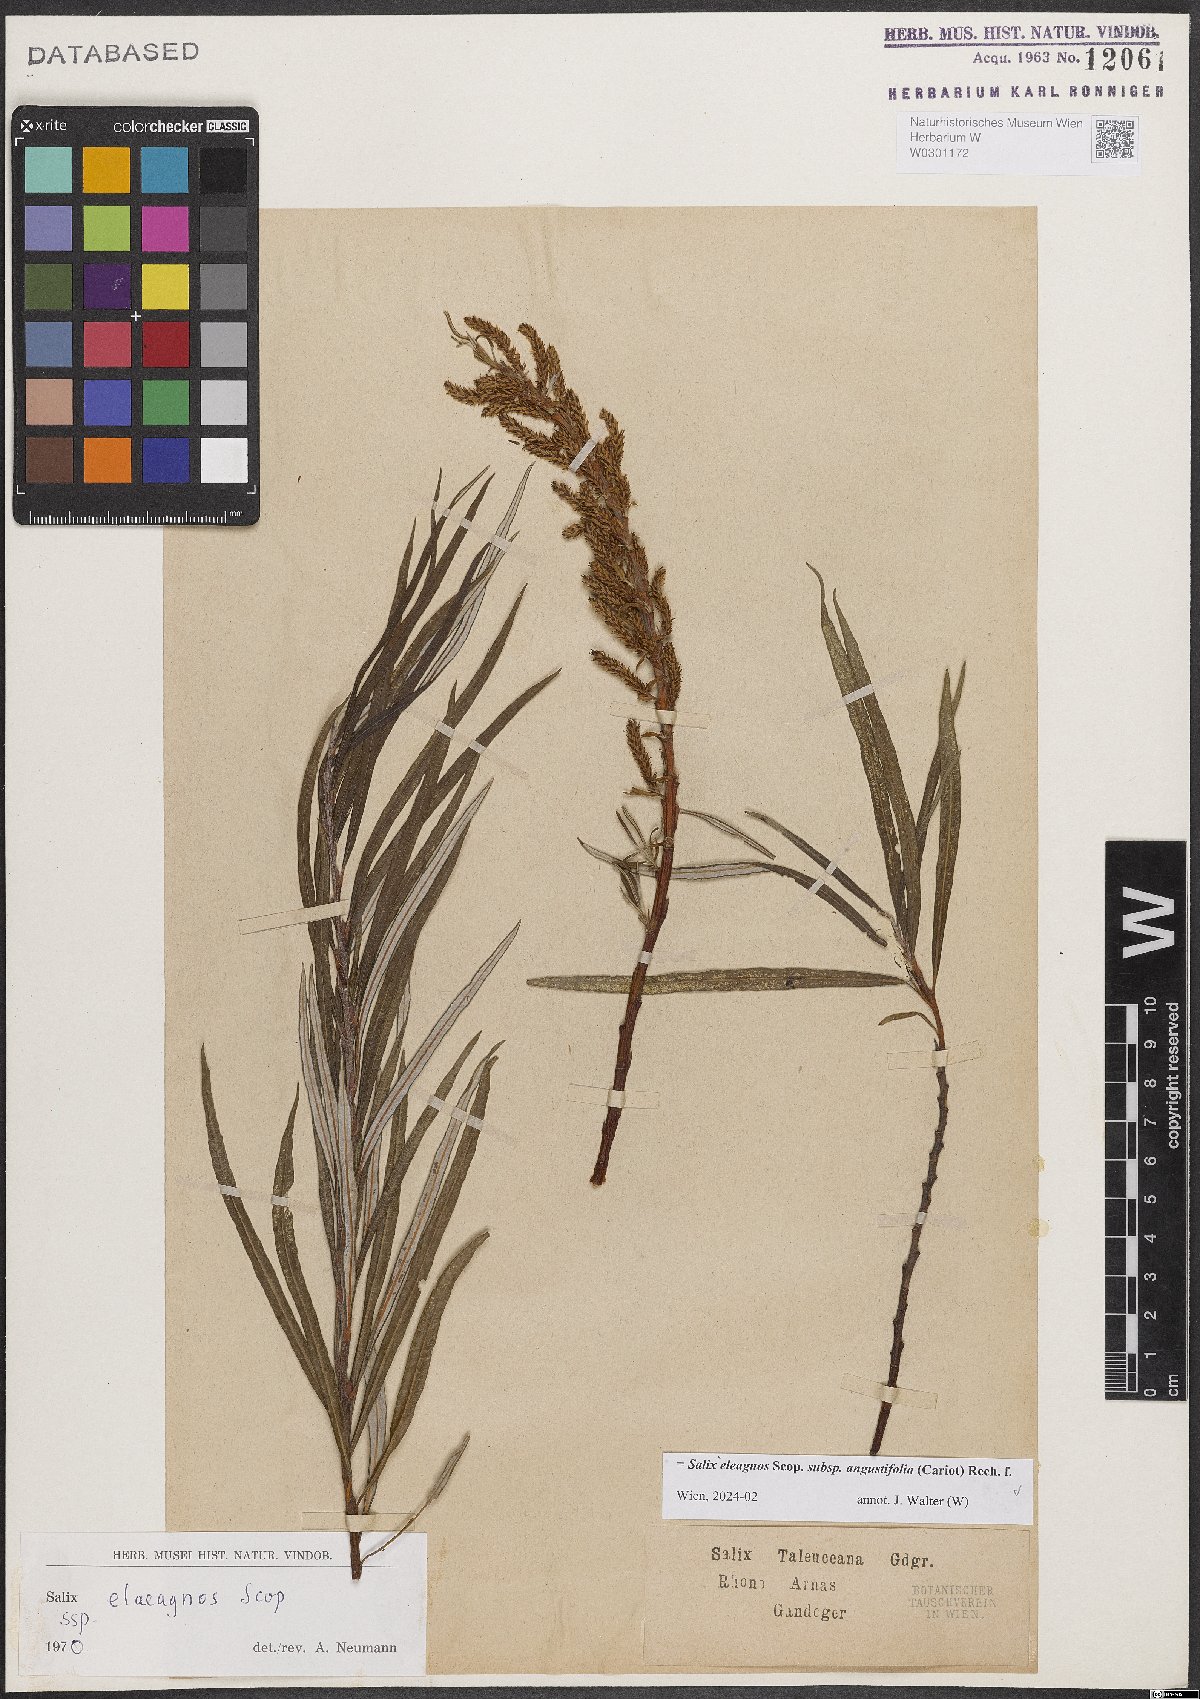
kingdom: Plantae
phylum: Tracheophyta
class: Magnoliopsida
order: Malpighiales
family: Salicaceae
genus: Salix
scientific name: Salix eleagnos
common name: Elaeagnus willow
